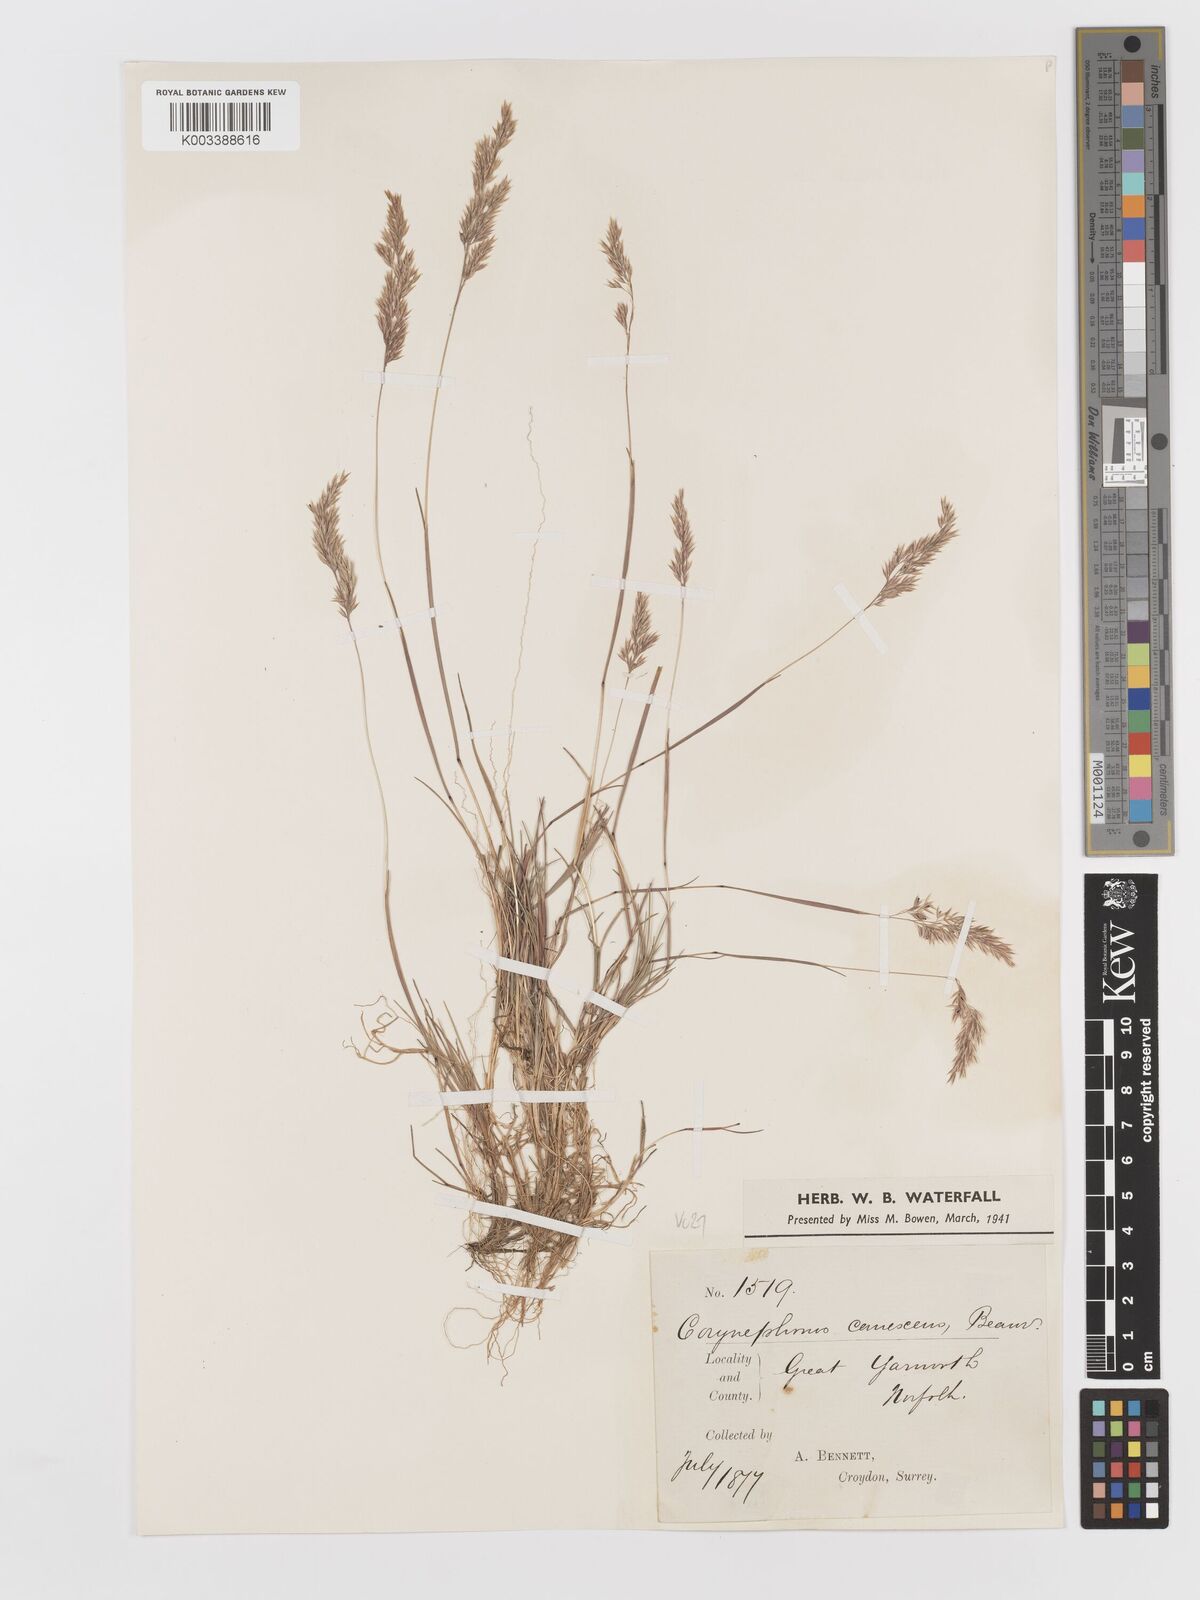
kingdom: Plantae
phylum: Tracheophyta
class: Liliopsida
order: Poales
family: Poaceae
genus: Corynephorus
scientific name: Corynephorus canescens
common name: Grey hair-grass
